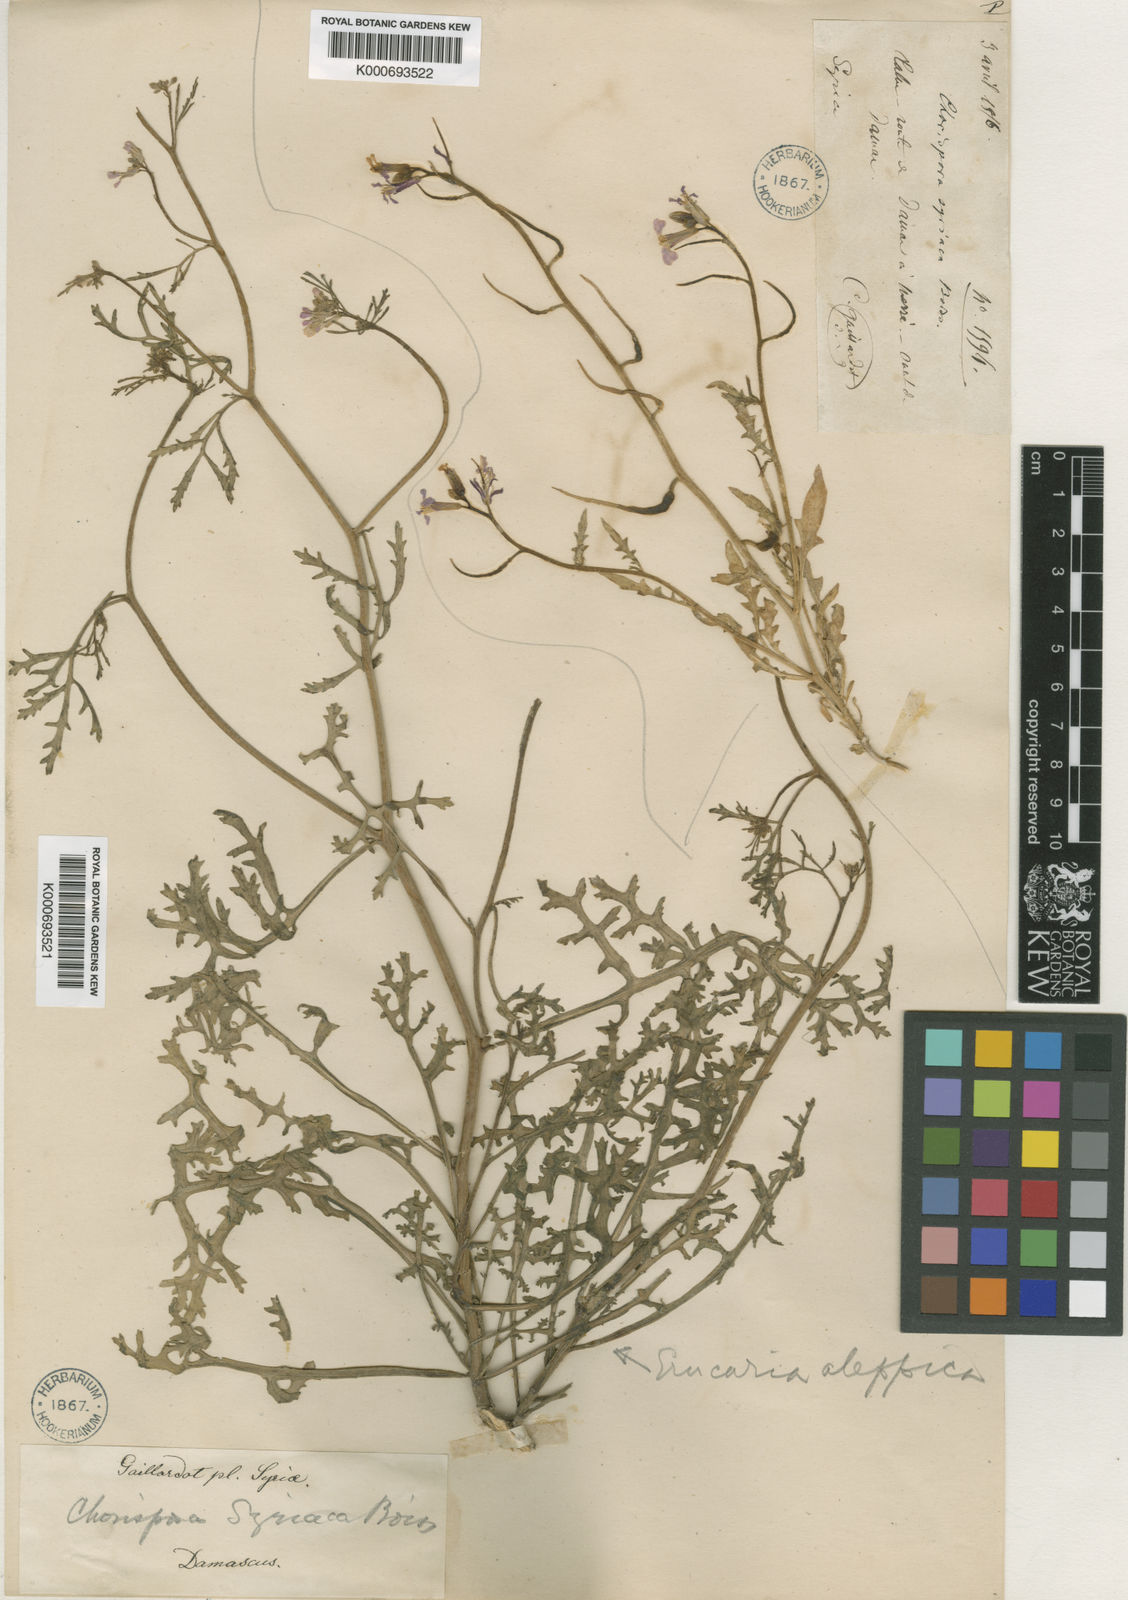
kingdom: Plantae
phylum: Tracheophyta
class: Magnoliopsida
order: Brassicales
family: Brassicaceae
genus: Chorispora
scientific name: Chorispora purpurascens
